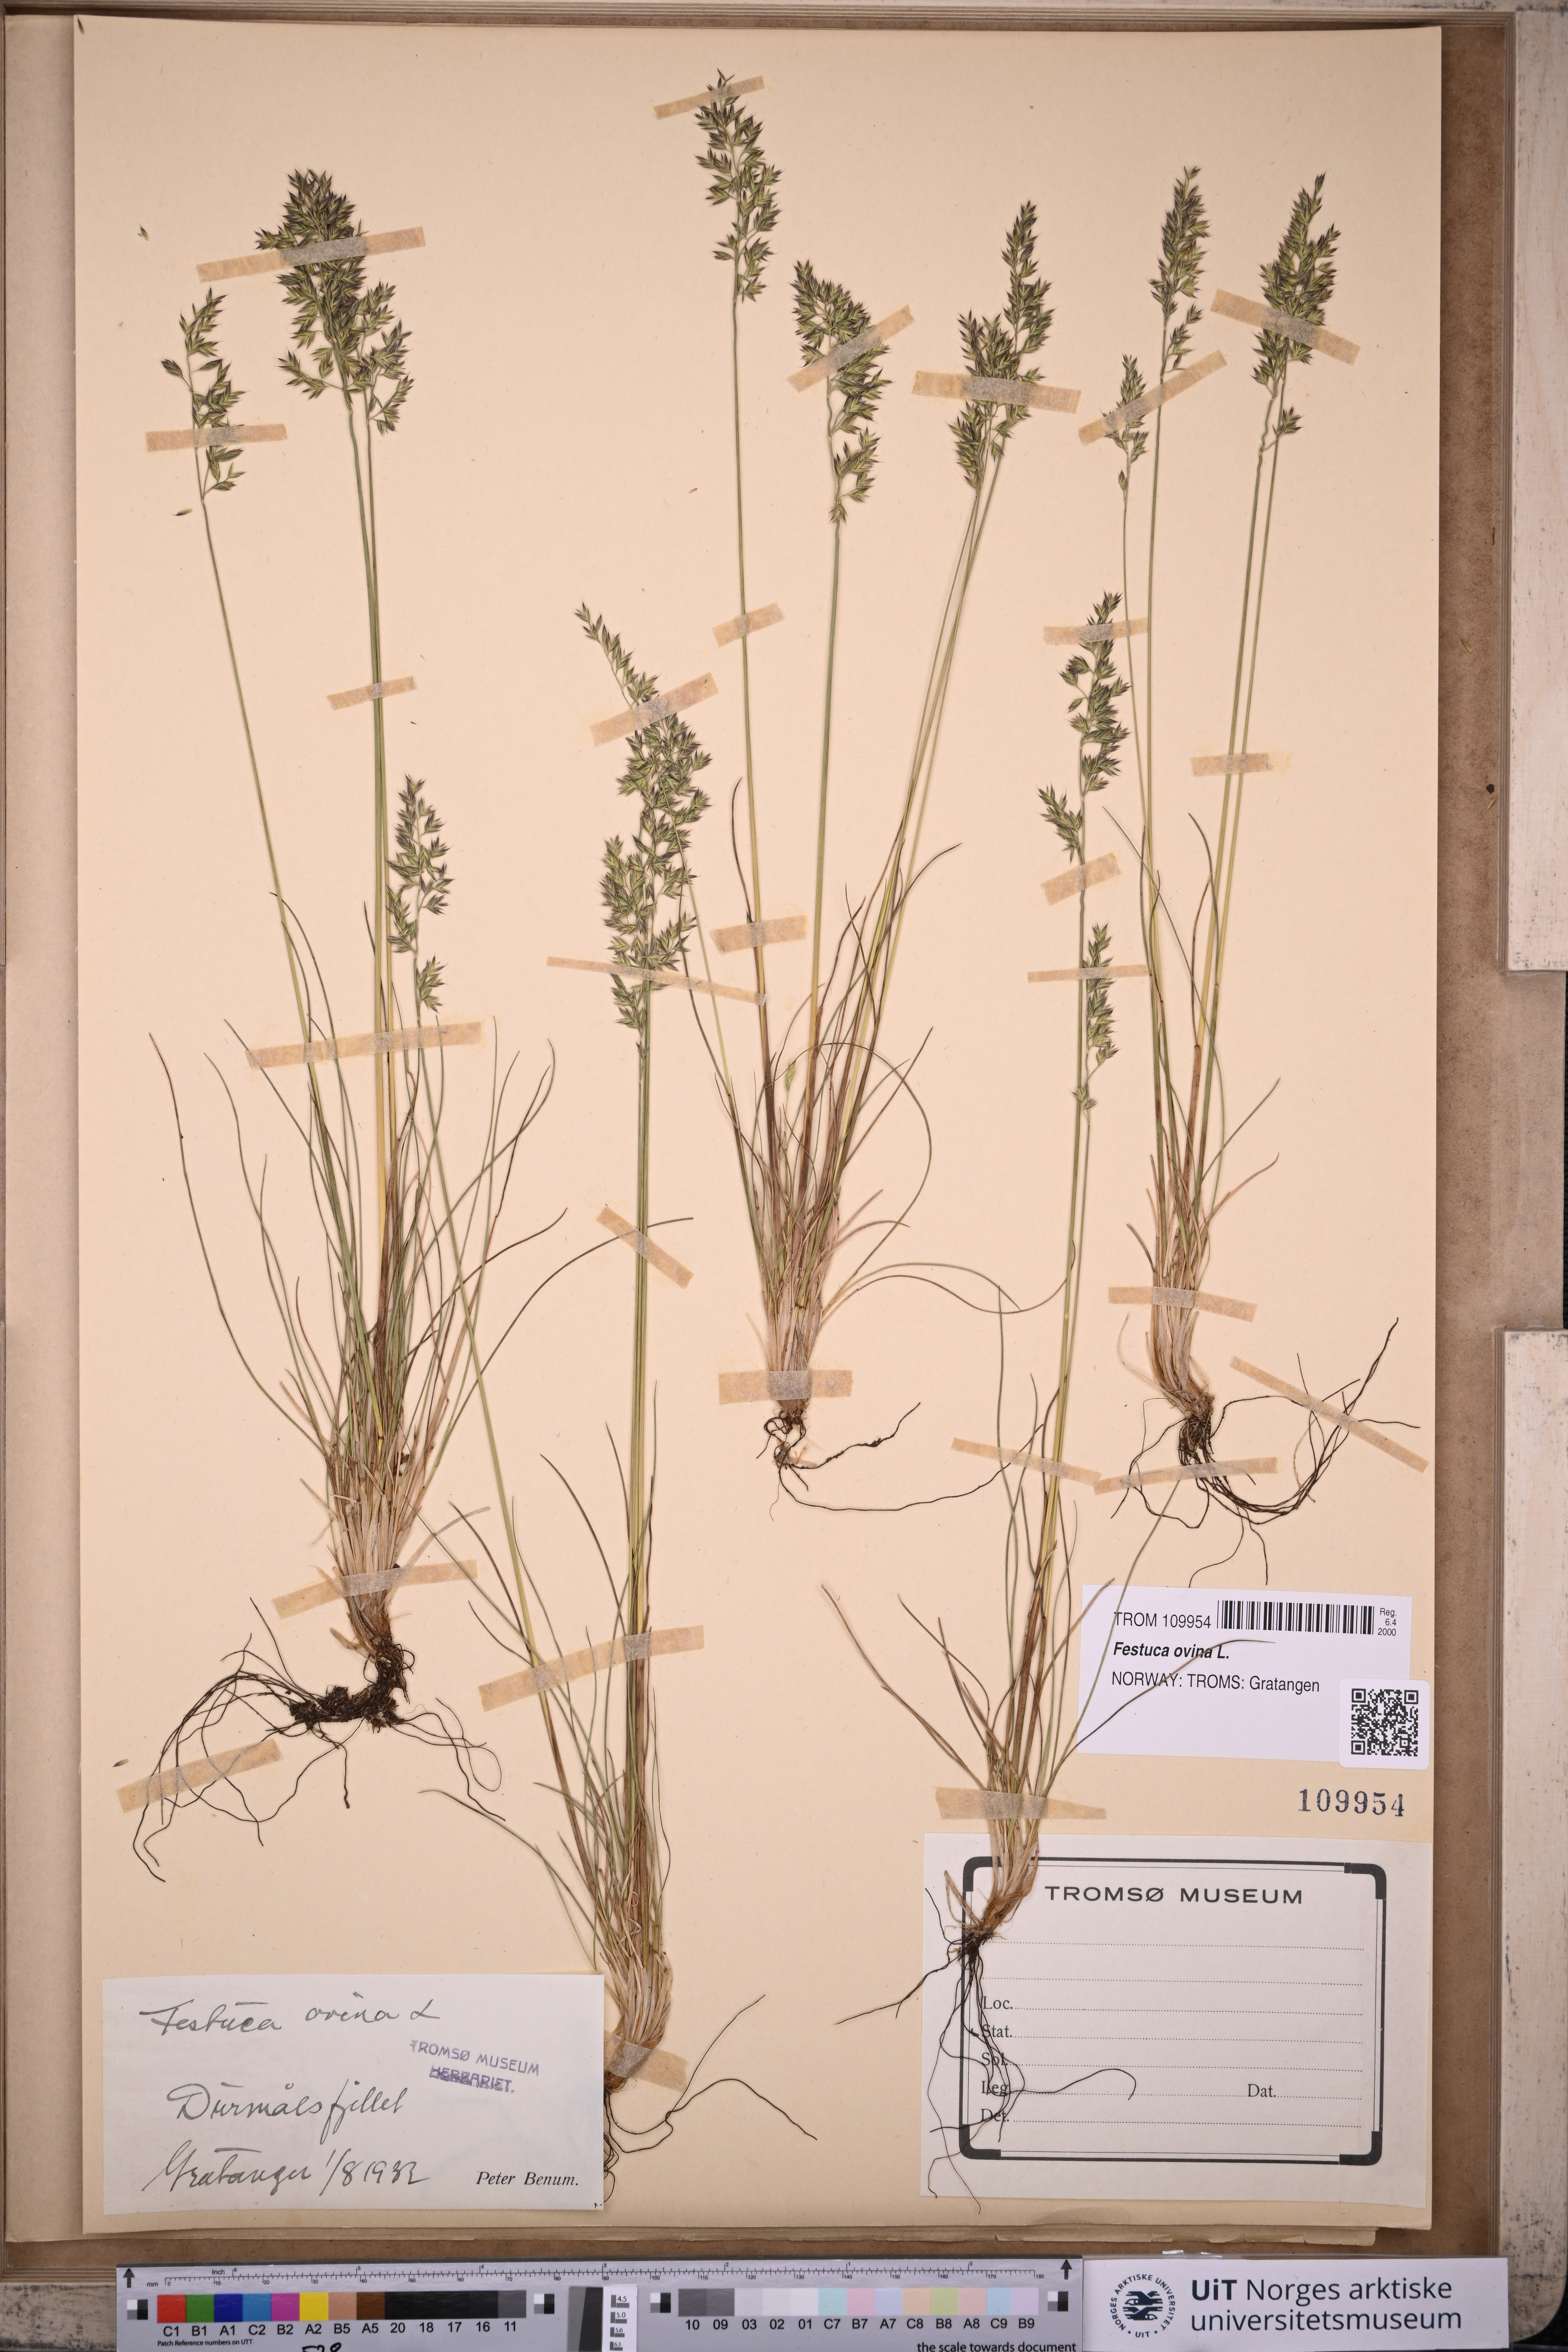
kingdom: Plantae
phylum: Tracheophyta
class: Liliopsida
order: Poales
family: Poaceae
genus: Festuca
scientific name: Festuca ovina
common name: Sheep fescue
